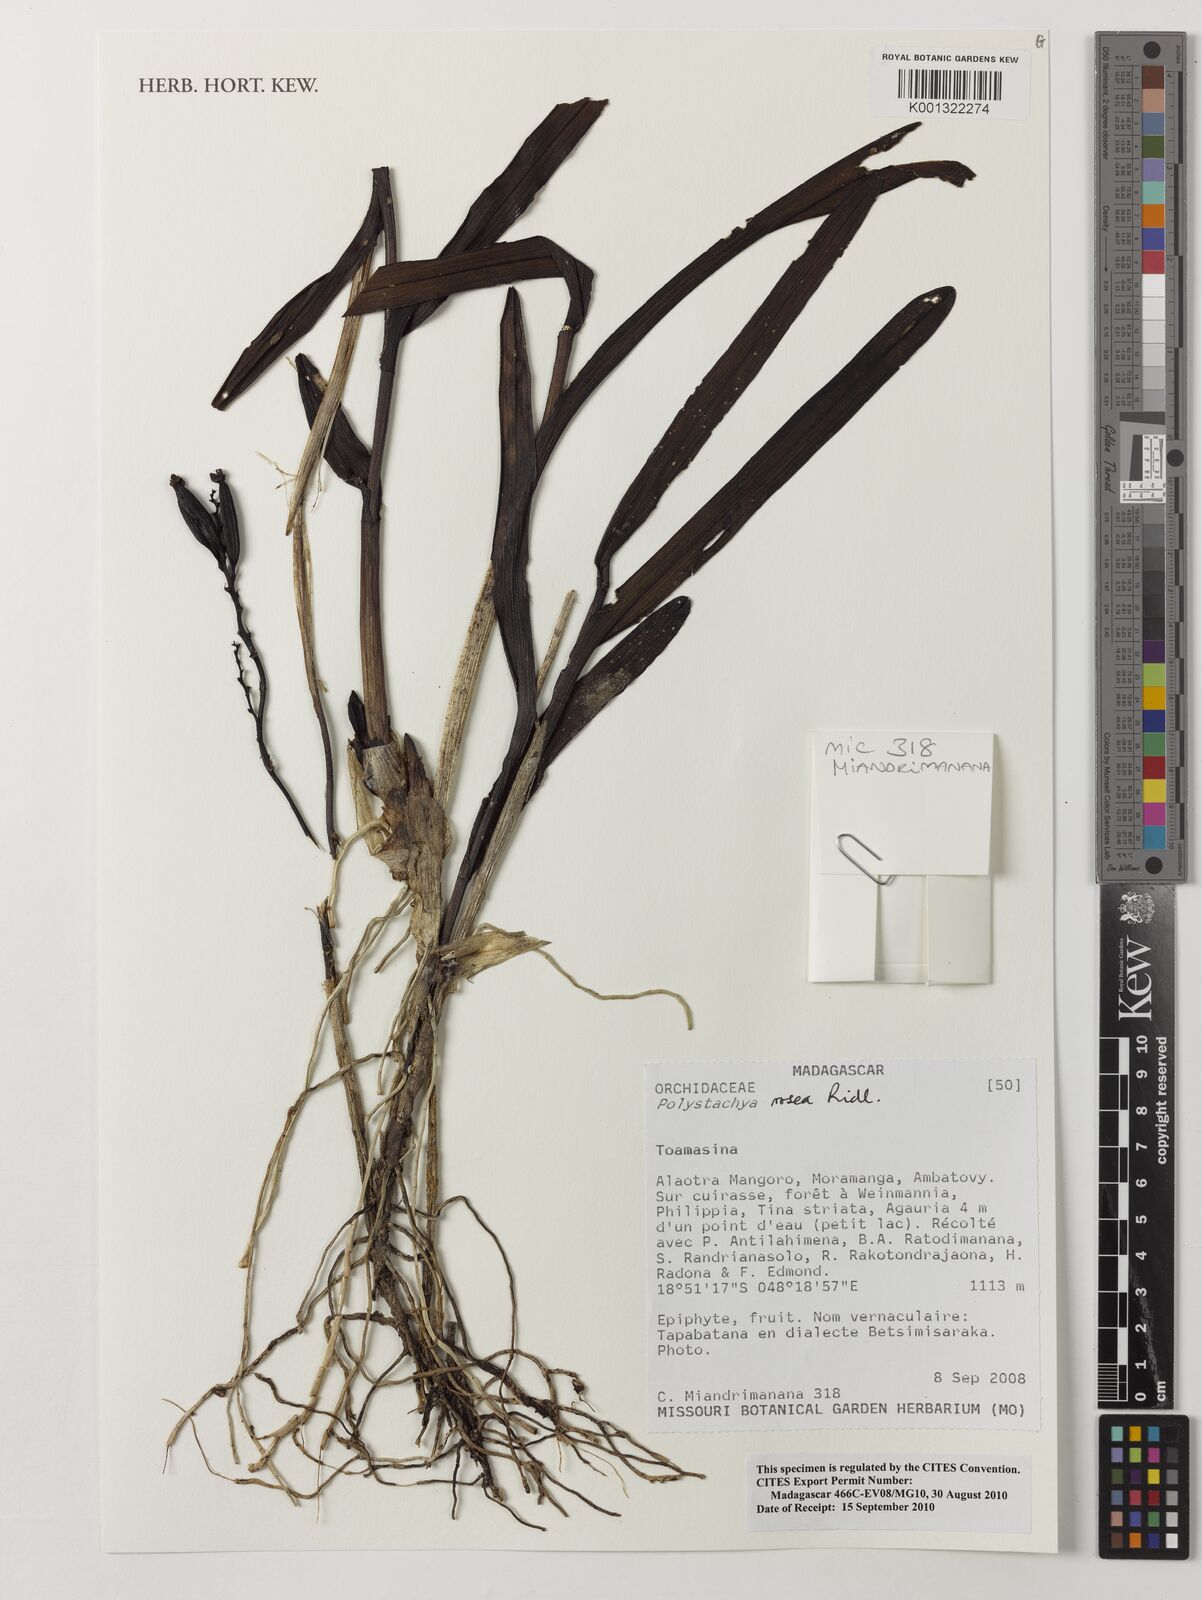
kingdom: Plantae
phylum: Tracheophyta
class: Liliopsida
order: Asparagales
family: Orchidaceae
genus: Polystachya
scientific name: Polystachya rosea
